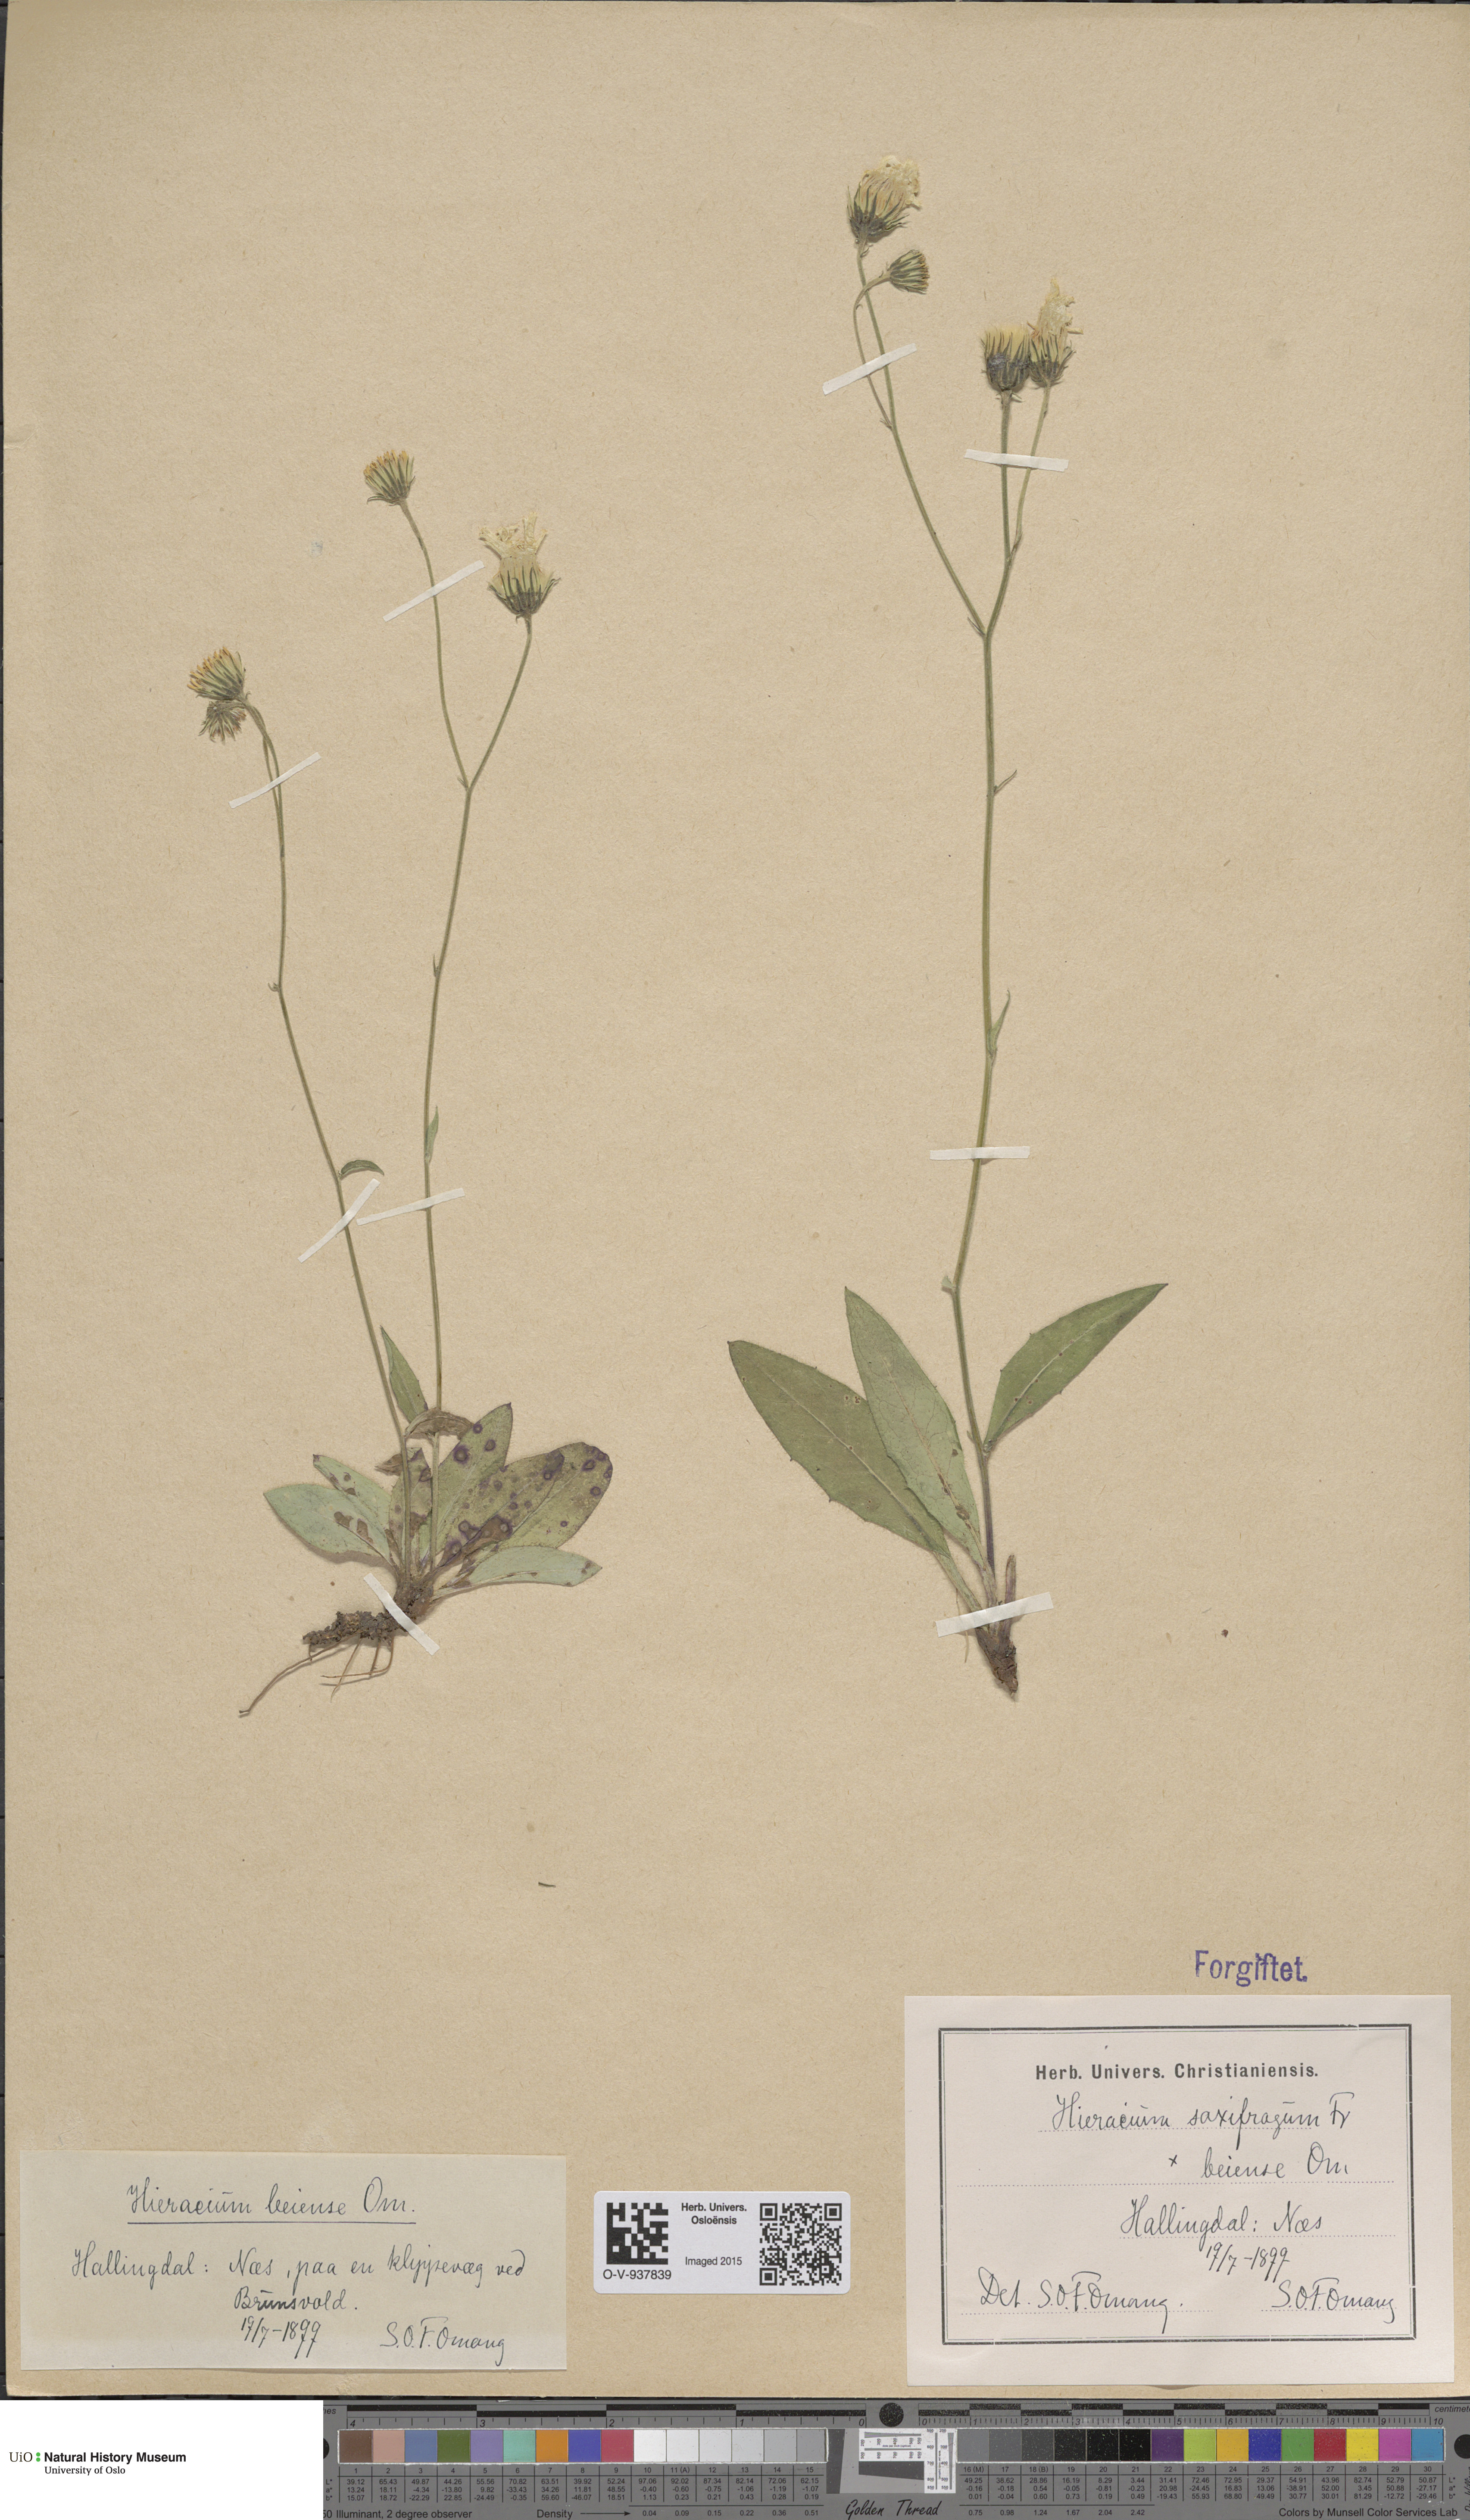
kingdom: Plantae
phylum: Tracheophyta
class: Magnoliopsida
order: Asterales
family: Asteraceae
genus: Hieracium
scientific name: Hieracium saxifragum
